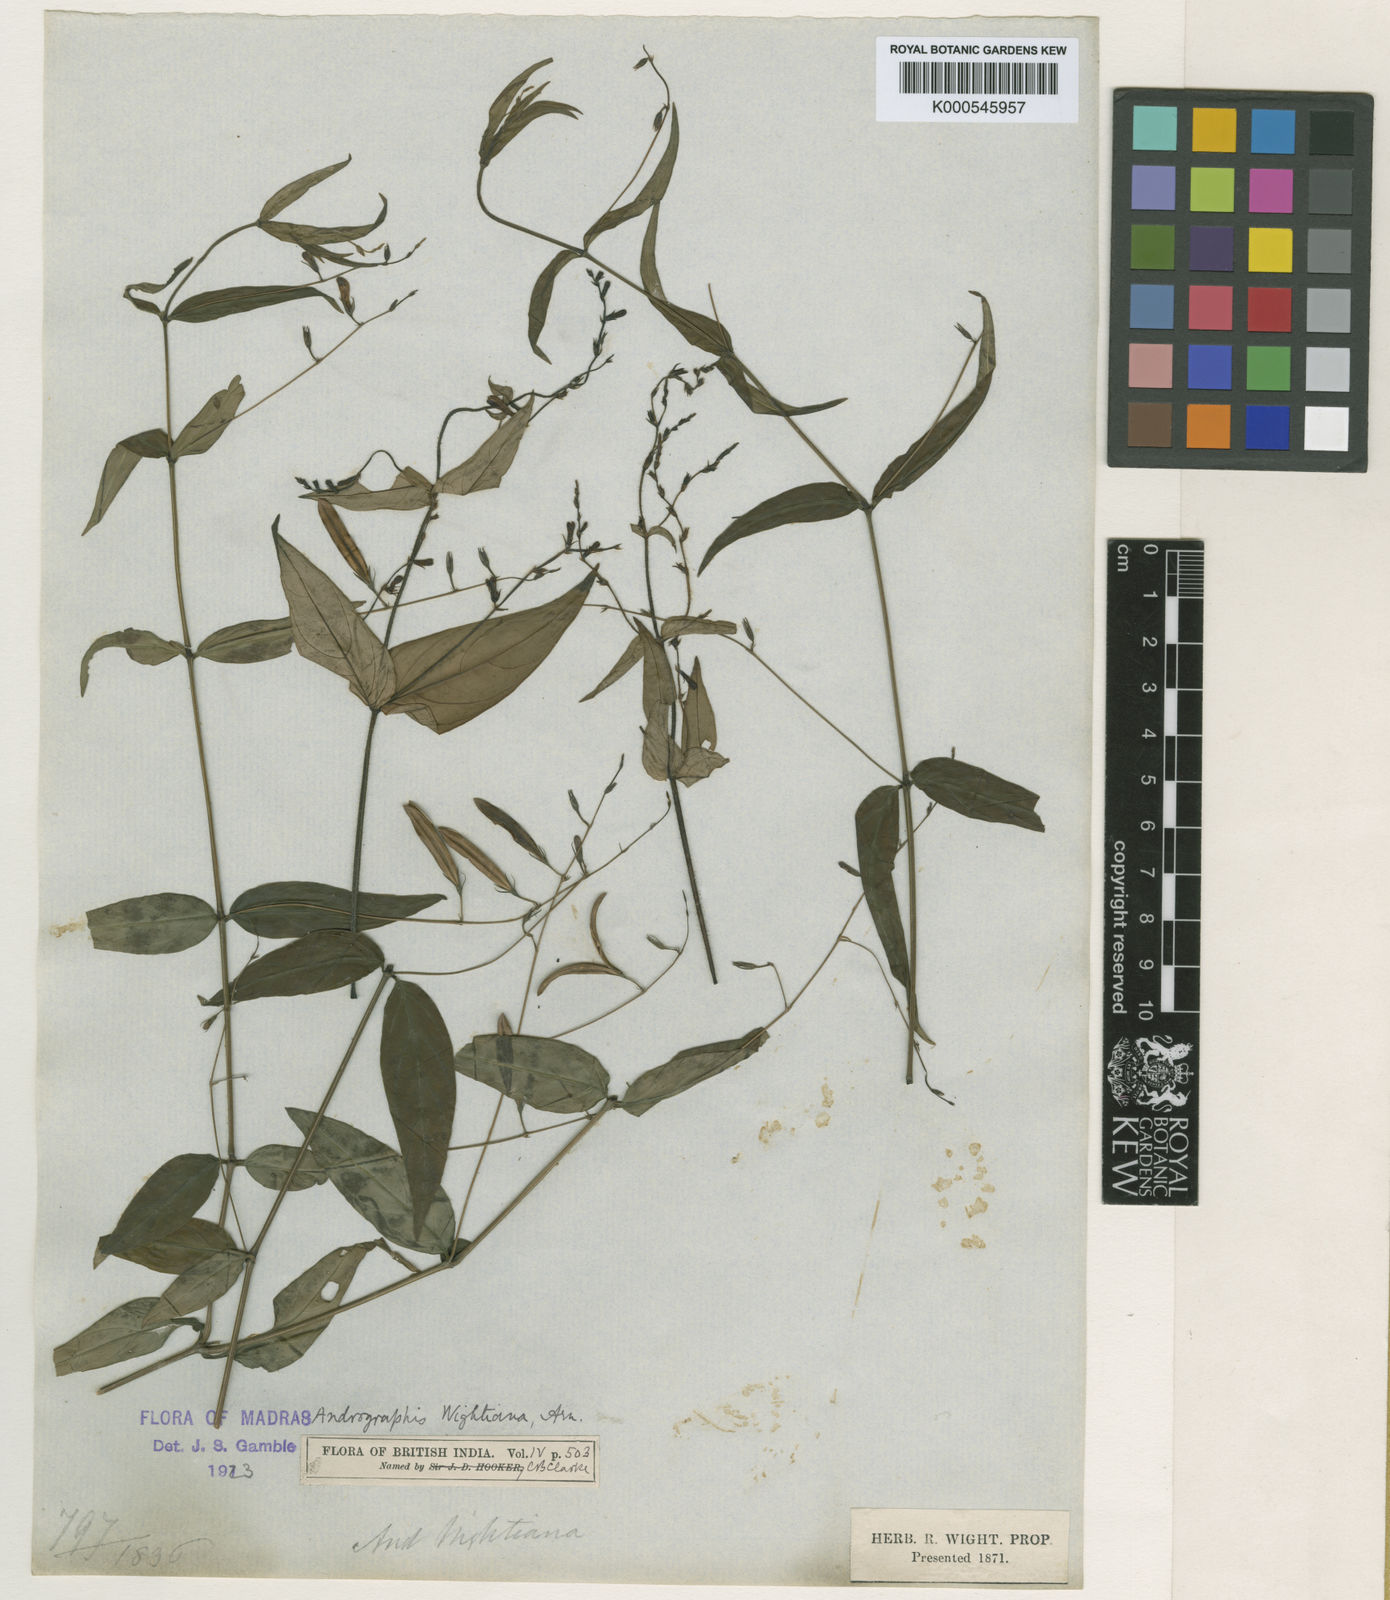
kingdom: Plantae
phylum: Tracheophyta
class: Magnoliopsida
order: Lamiales
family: Acanthaceae
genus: Andrographis
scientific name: Andrographis
